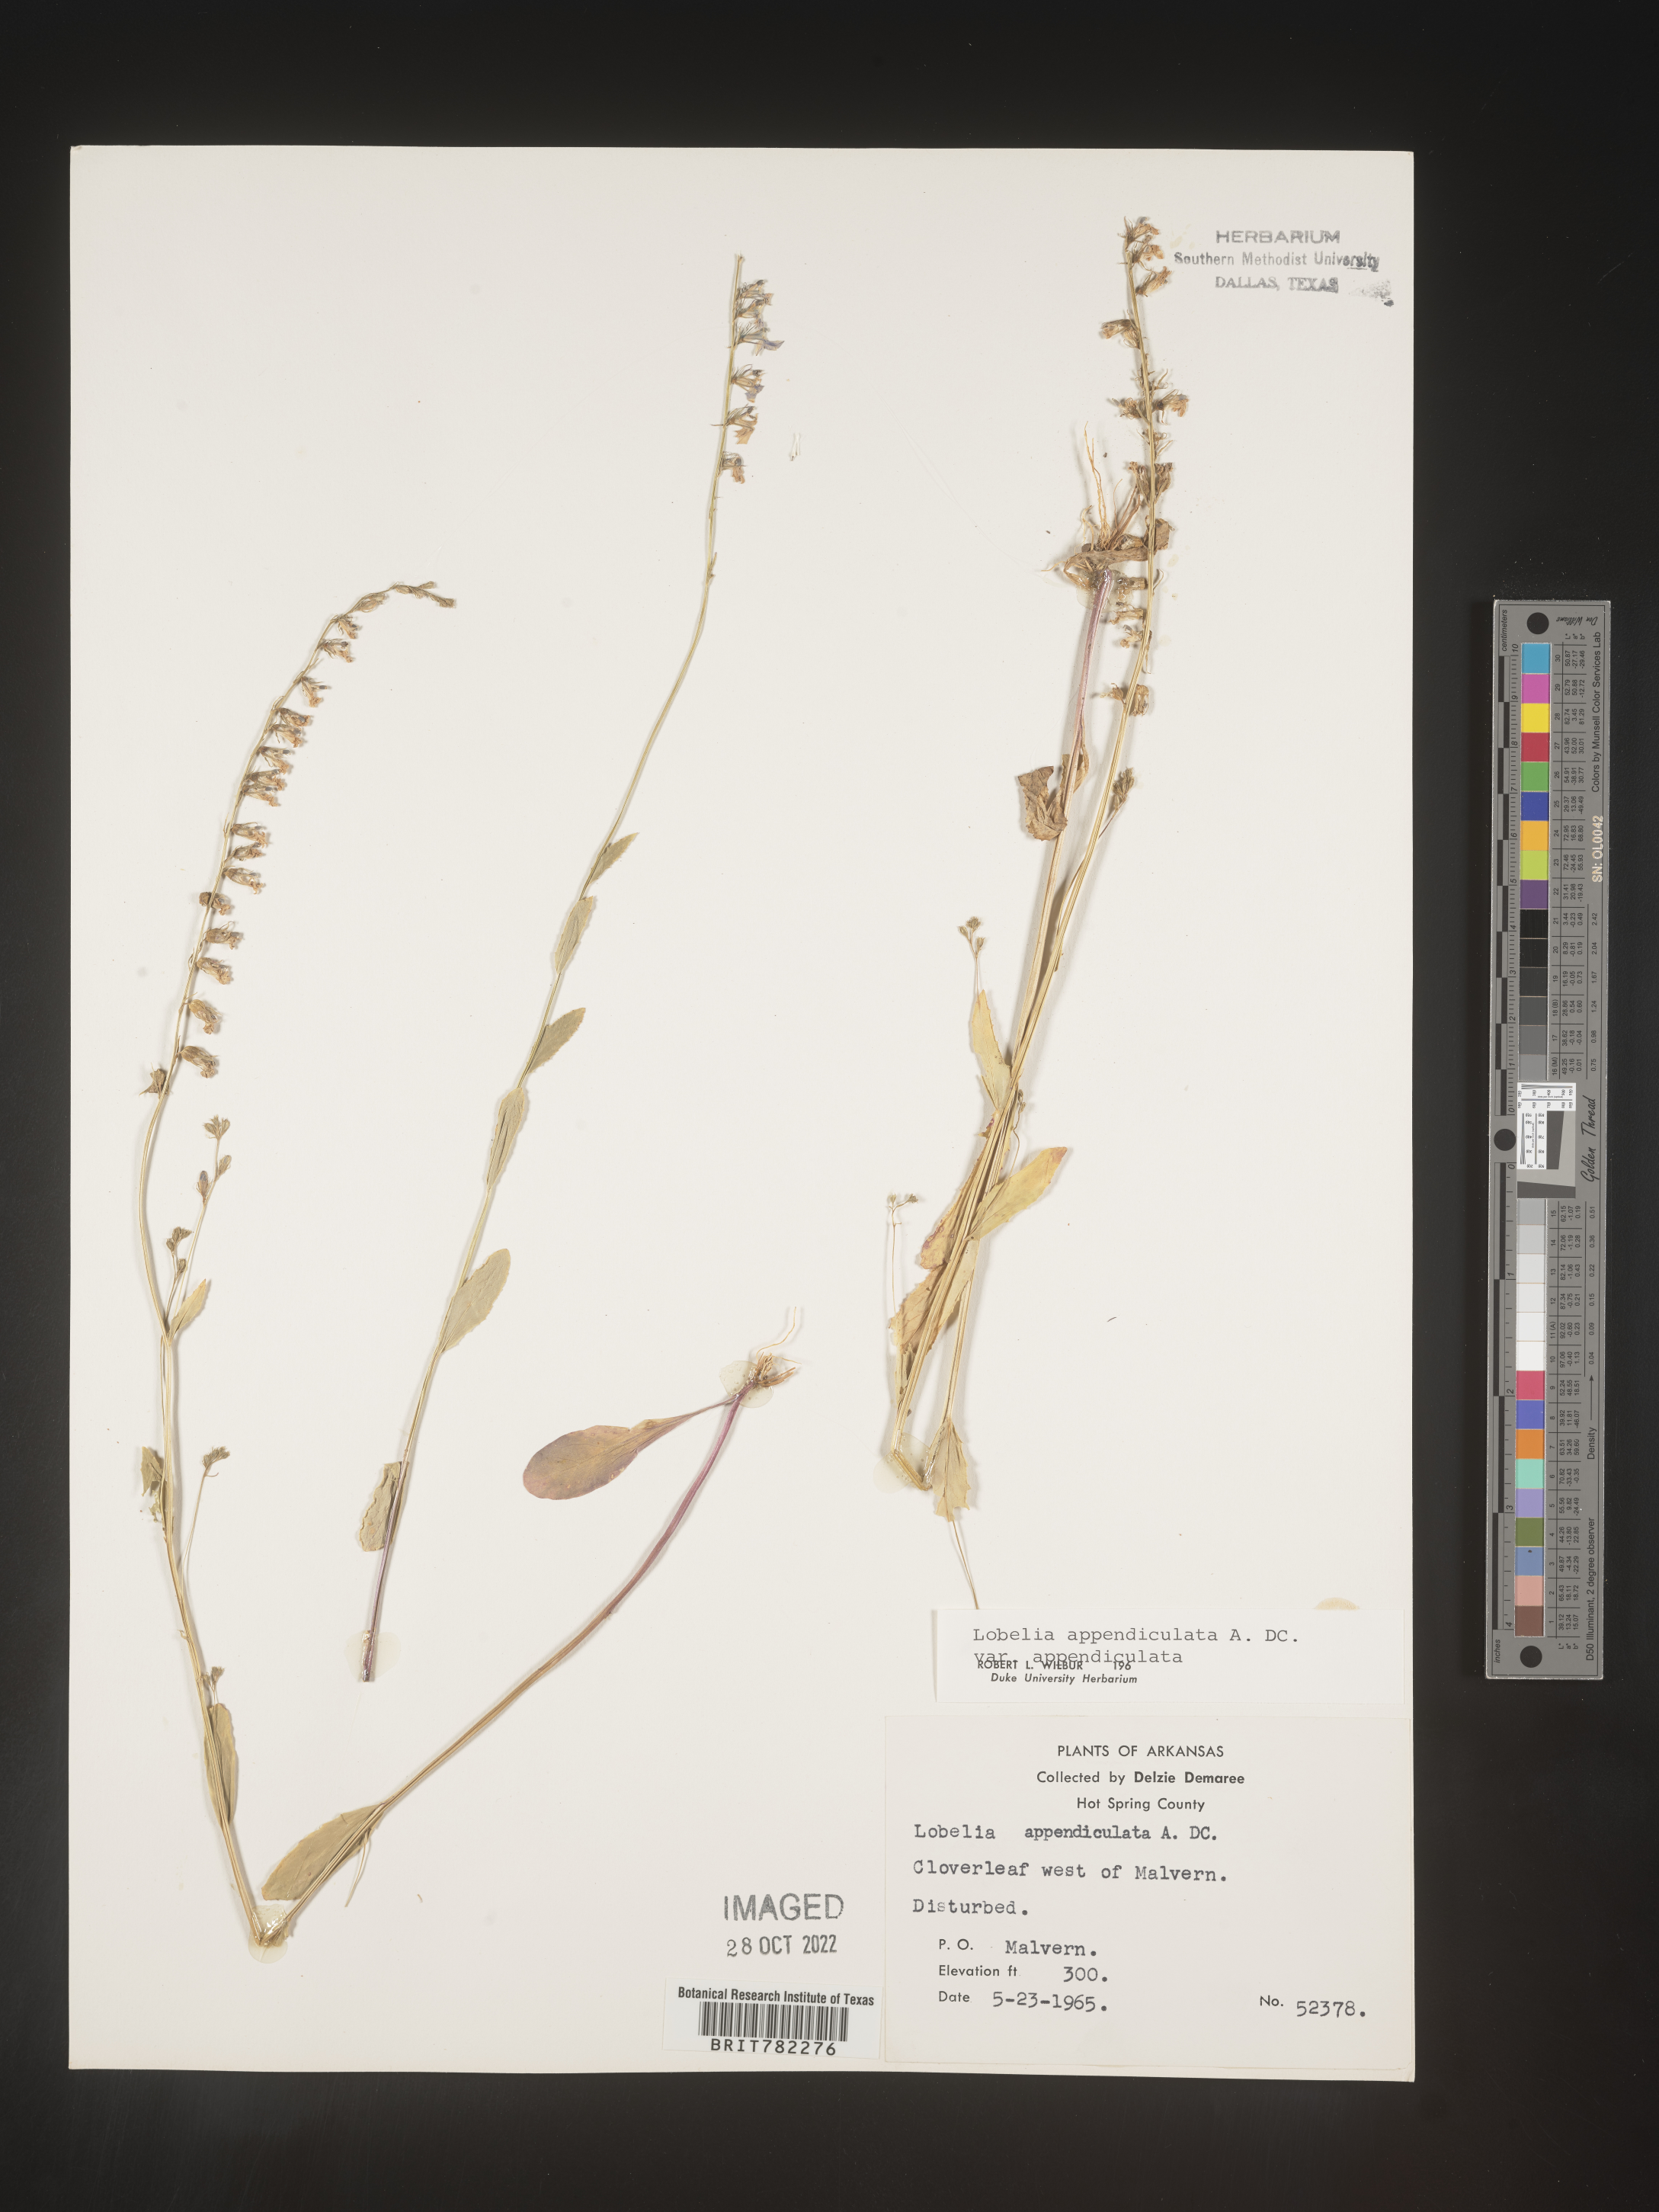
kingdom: Plantae
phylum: Tracheophyta
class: Magnoliopsida
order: Asterales
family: Campanulaceae
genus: Lobelia
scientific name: Lobelia appendiculata
